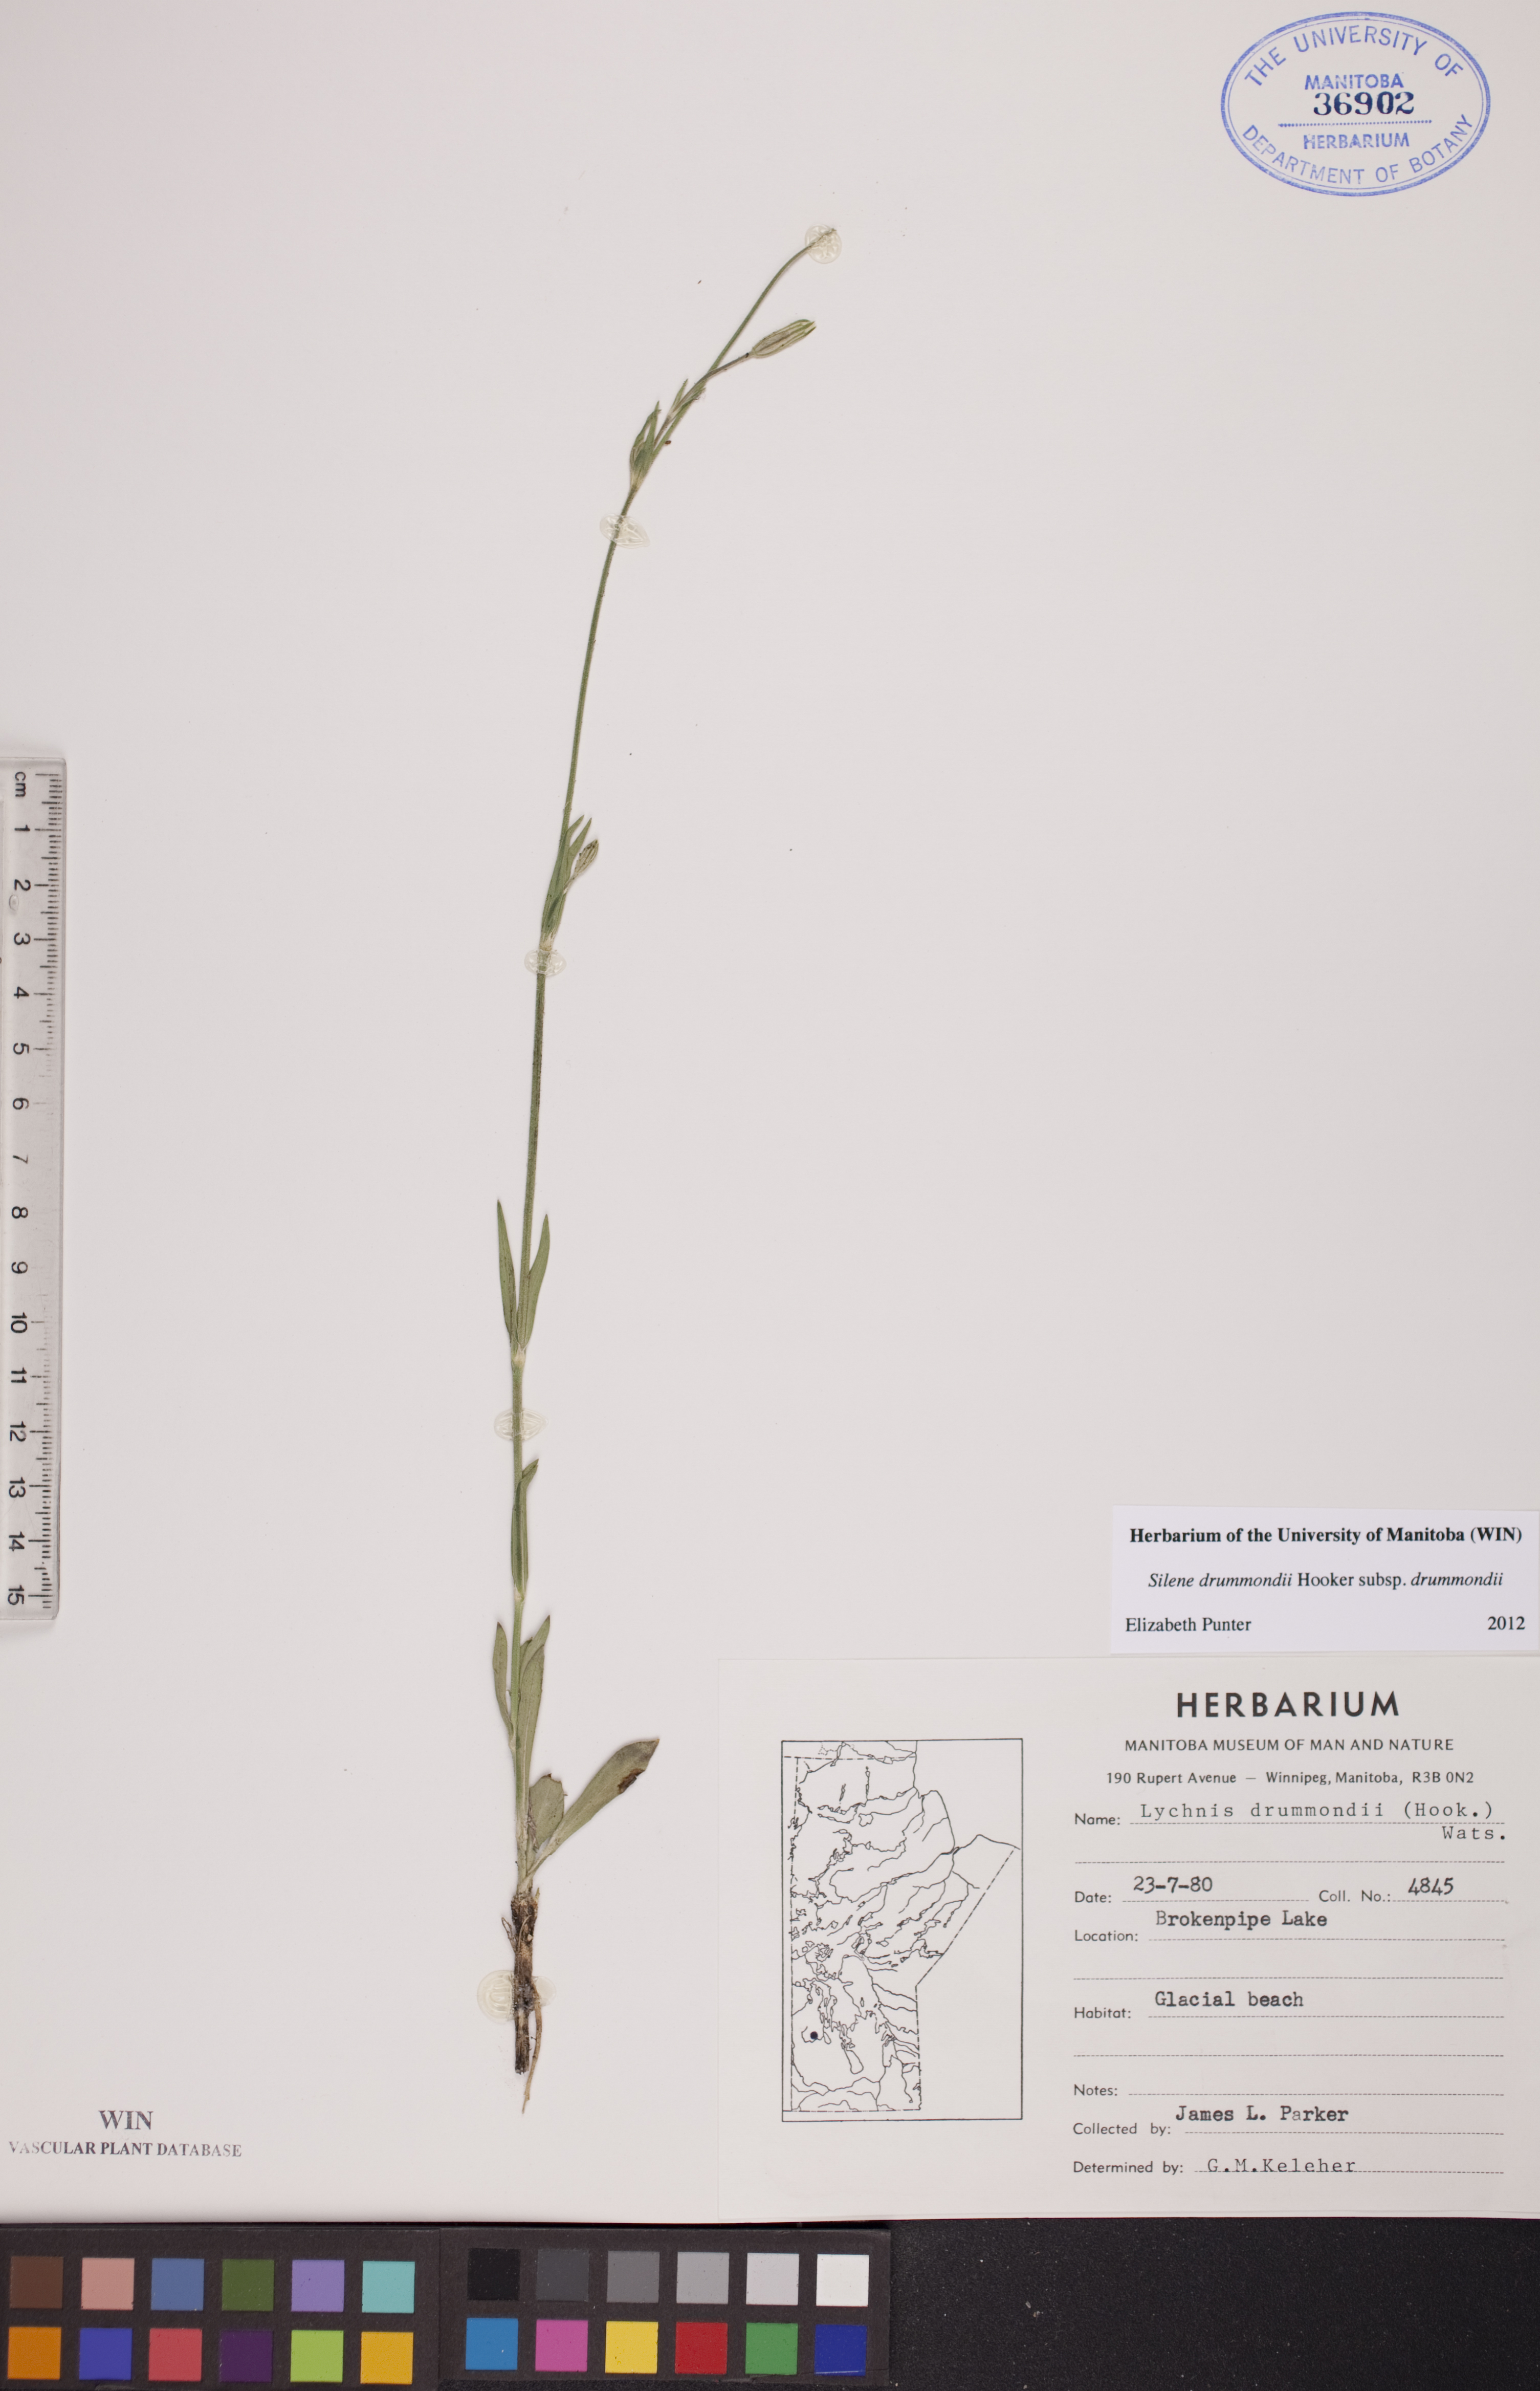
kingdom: Plantae
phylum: Tracheophyta
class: Magnoliopsida
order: Caryophyllales
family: Caryophyllaceae
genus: Silene
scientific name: Silene drummondii
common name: Drummond's catchfly
